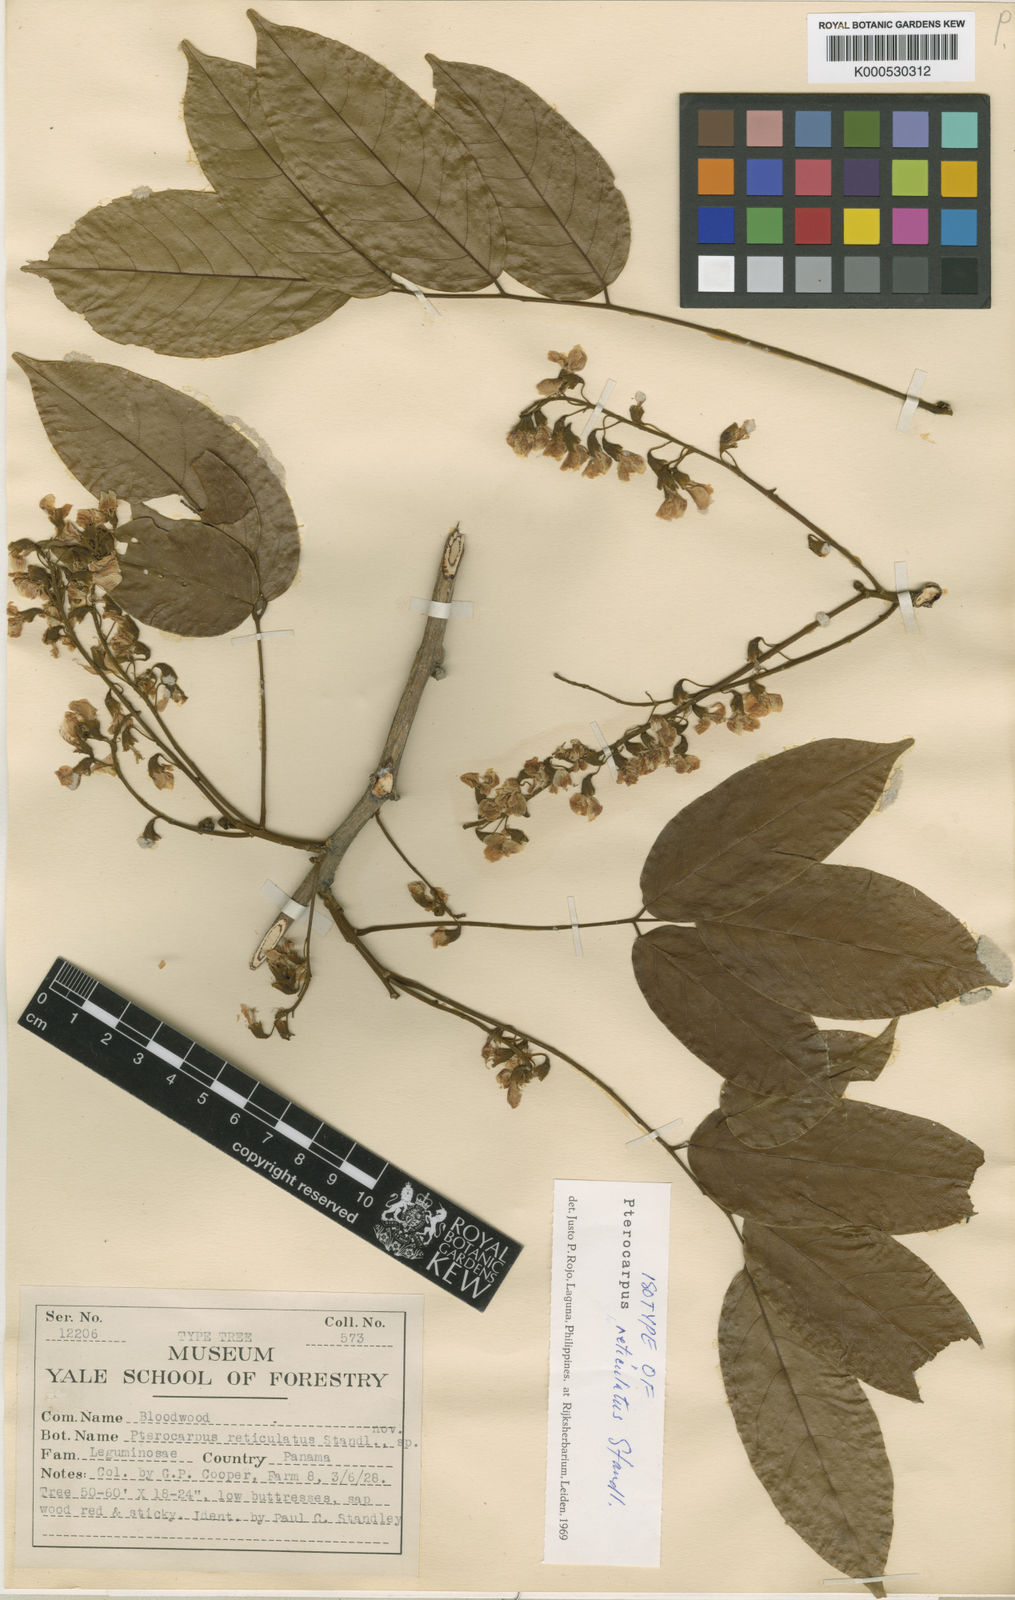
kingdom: Plantae
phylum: Tracheophyta
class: Magnoliopsida
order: Fabales
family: Fabaceae
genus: Pterocarpus
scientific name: Pterocarpus rohrii
